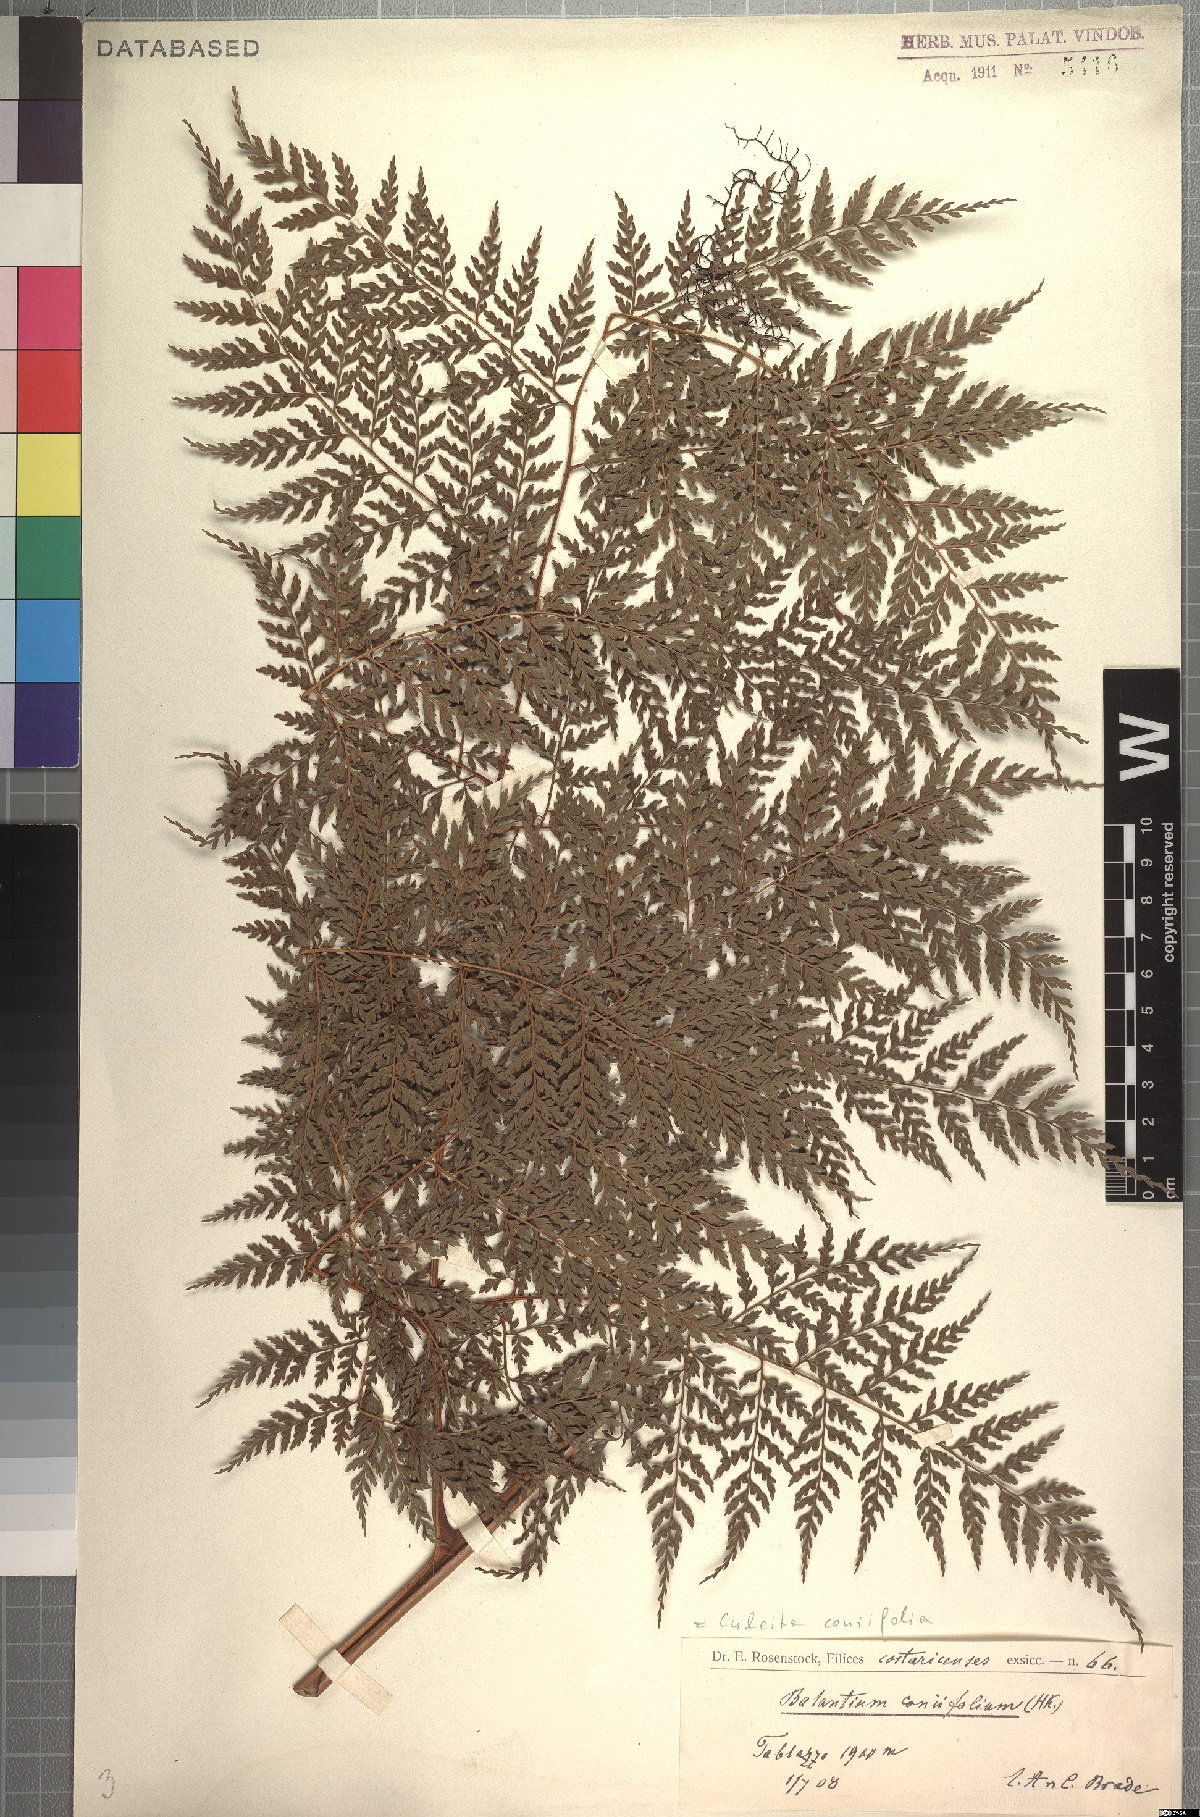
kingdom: Plantae
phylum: Tracheophyta
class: Polypodiopsida
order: Cyatheales
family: Culcitaceae
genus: Culcita
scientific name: Culcita macrocarpa
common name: Woolly tree fern
